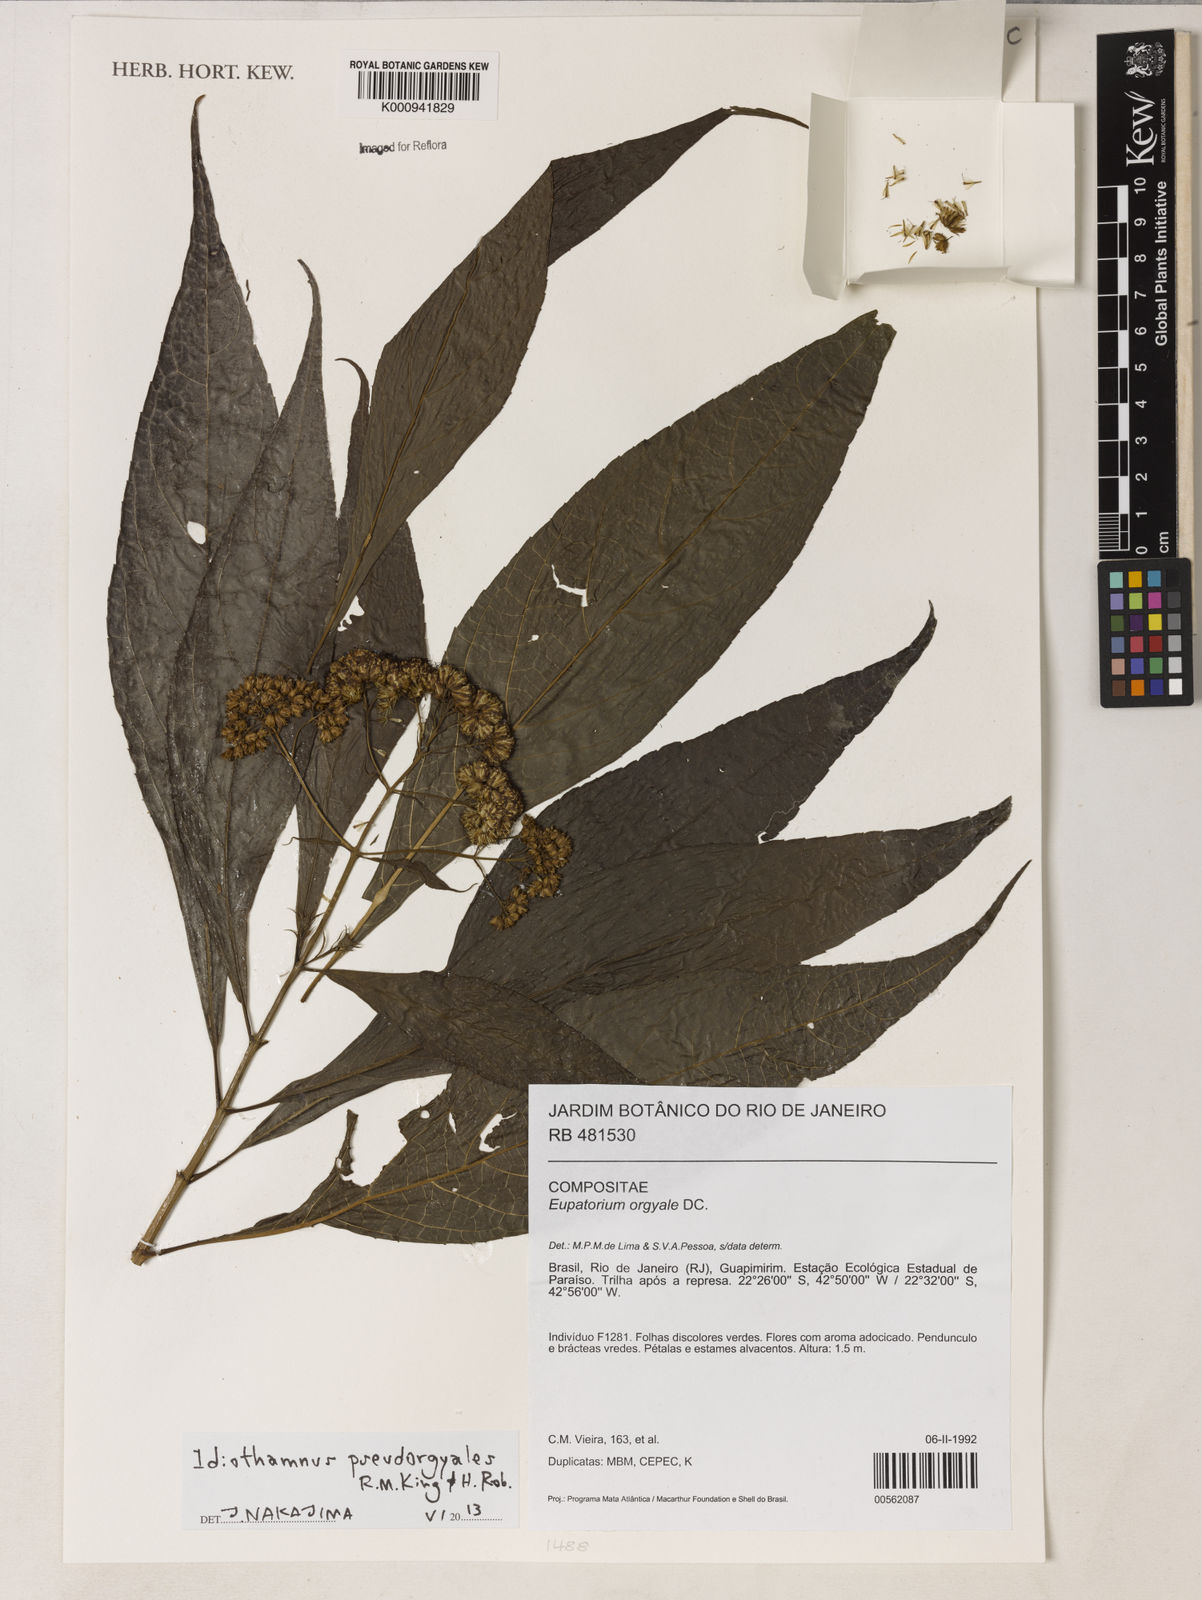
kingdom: Plantae
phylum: Tracheophyta
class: Magnoliopsida
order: Asterales
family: Asteraceae
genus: Idiothamnus
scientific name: Idiothamnus
